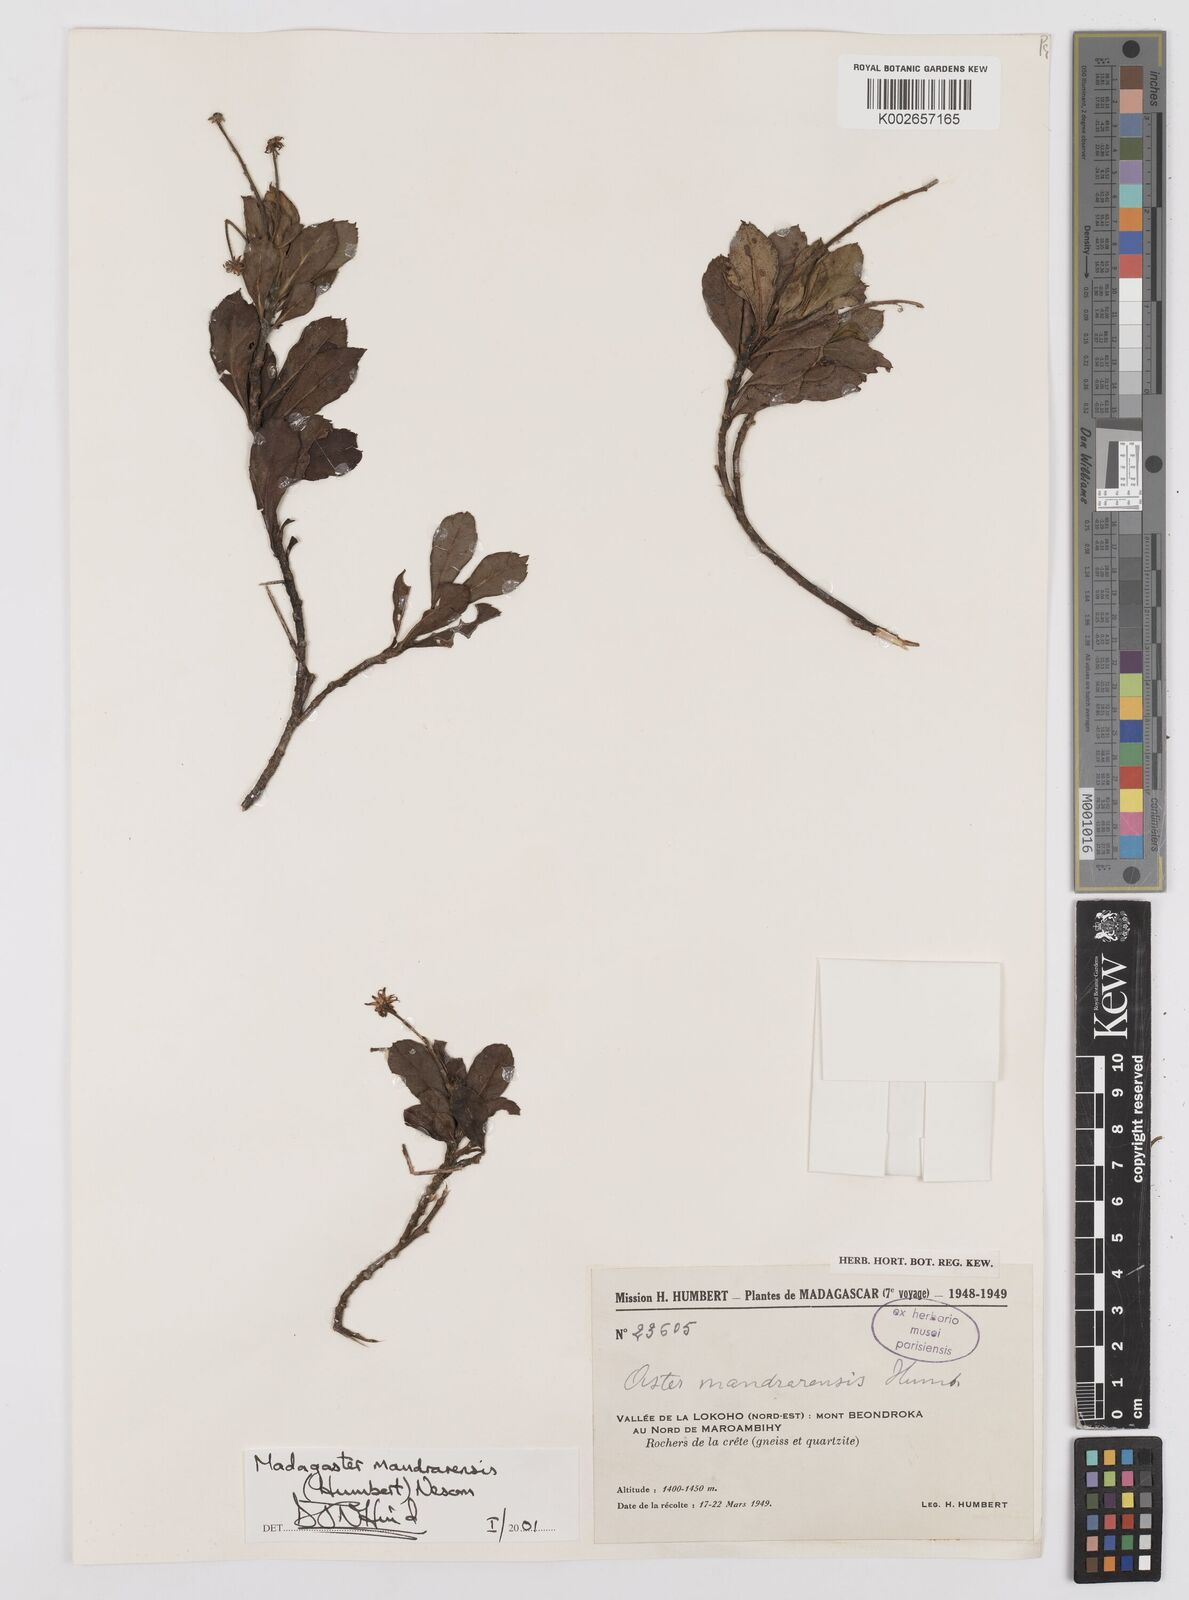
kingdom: Plantae
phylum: Tracheophyta
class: Magnoliopsida
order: Asterales
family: Asteraceae
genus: Madagaster
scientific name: Madagaster mandrarensis
